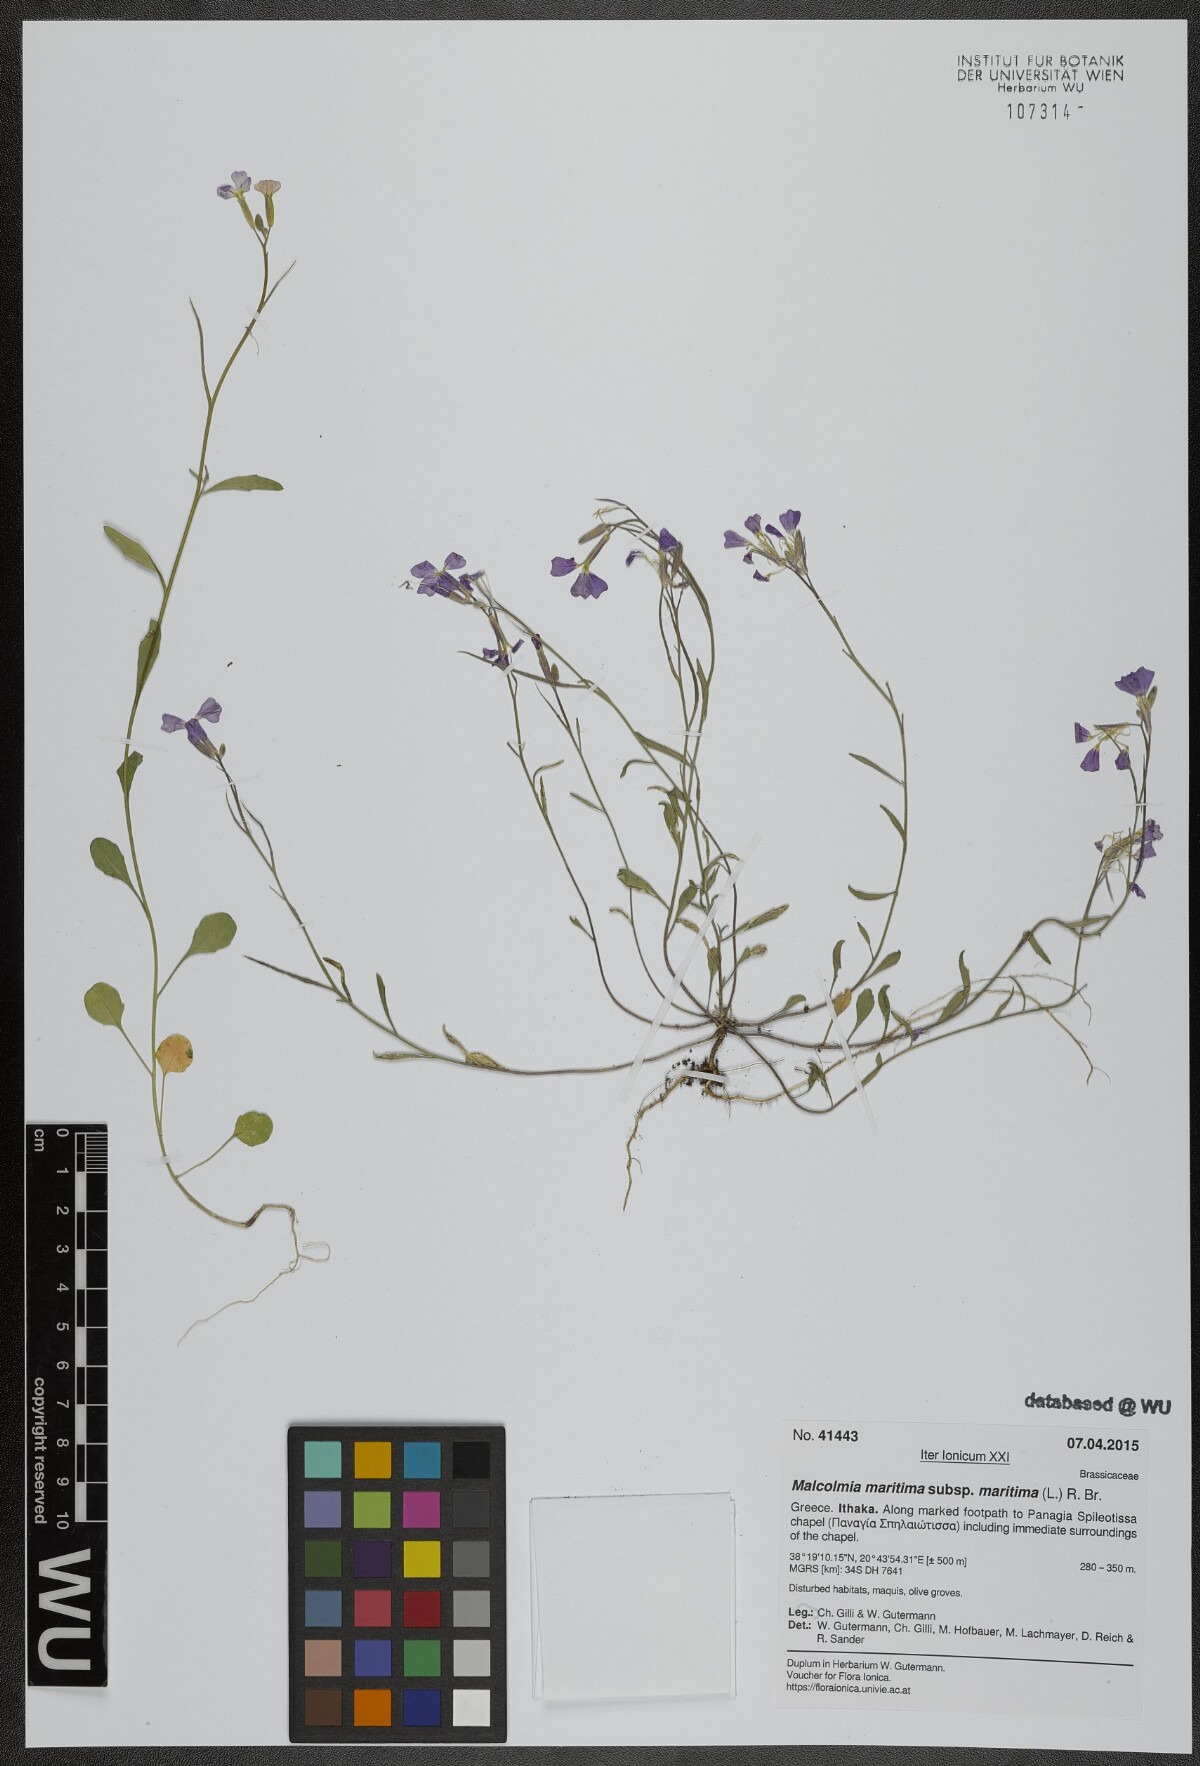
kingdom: Plantae
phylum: Tracheophyta
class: Magnoliopsida
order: Brassicales
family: Brassicaceae
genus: Malcolmia
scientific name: Malcolmia maritima
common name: Virginia stock
